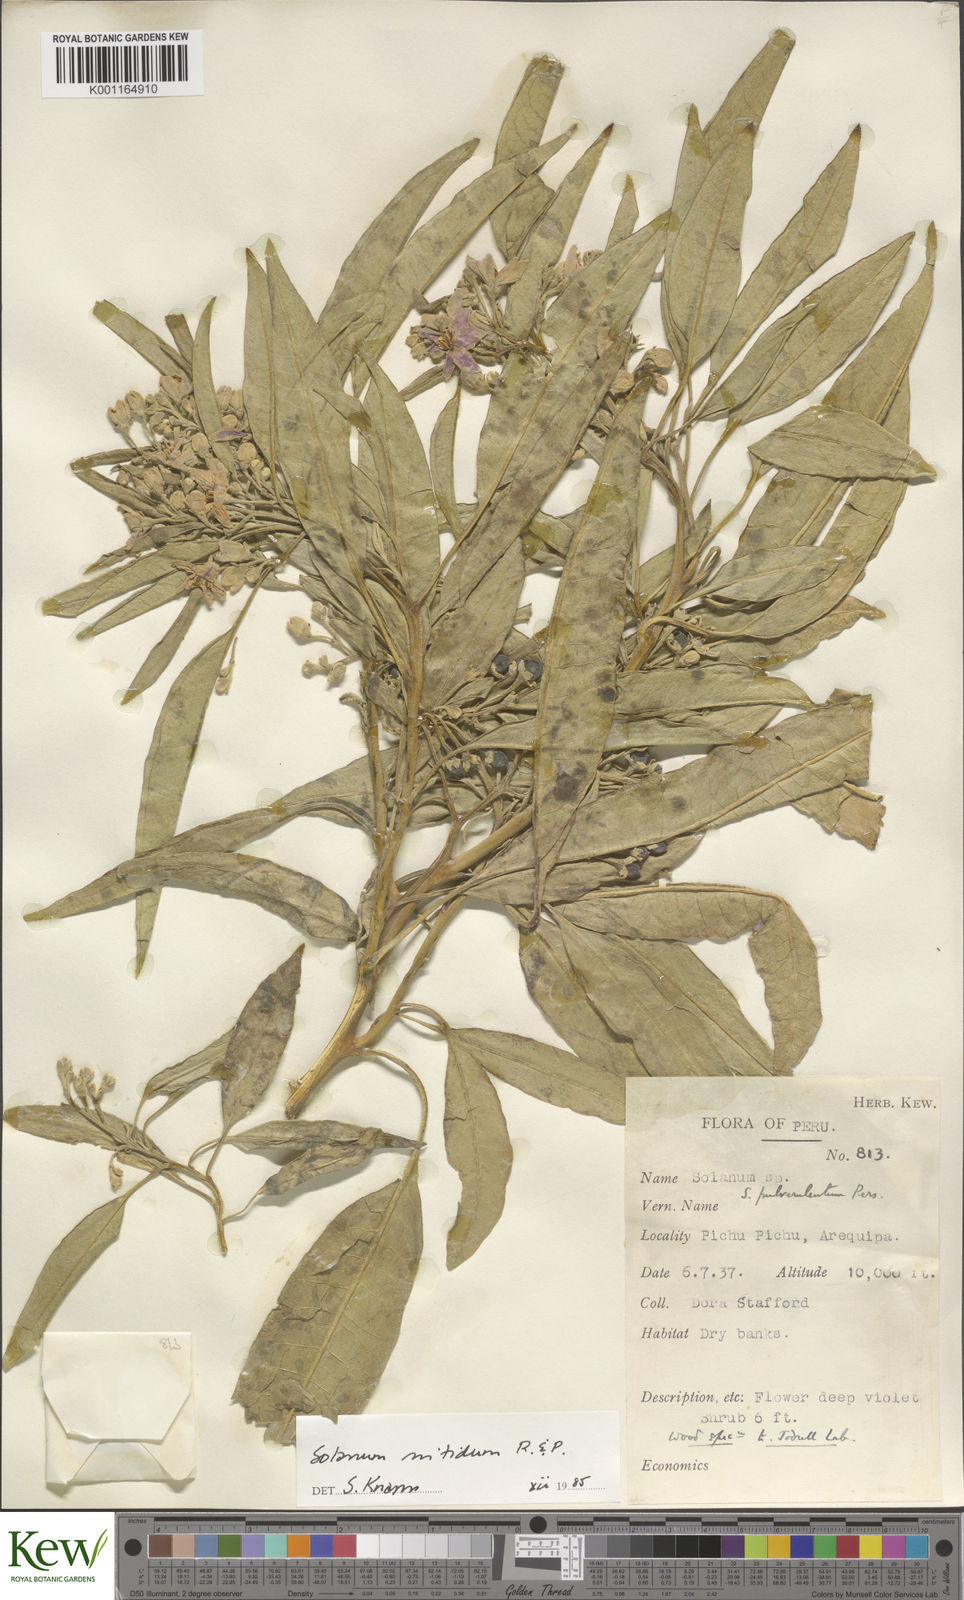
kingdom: Plantae
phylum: Tracheophyta
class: Magnoliopsida
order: Solanales
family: Solanaceae
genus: Solanum
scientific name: Solanum nitidum
